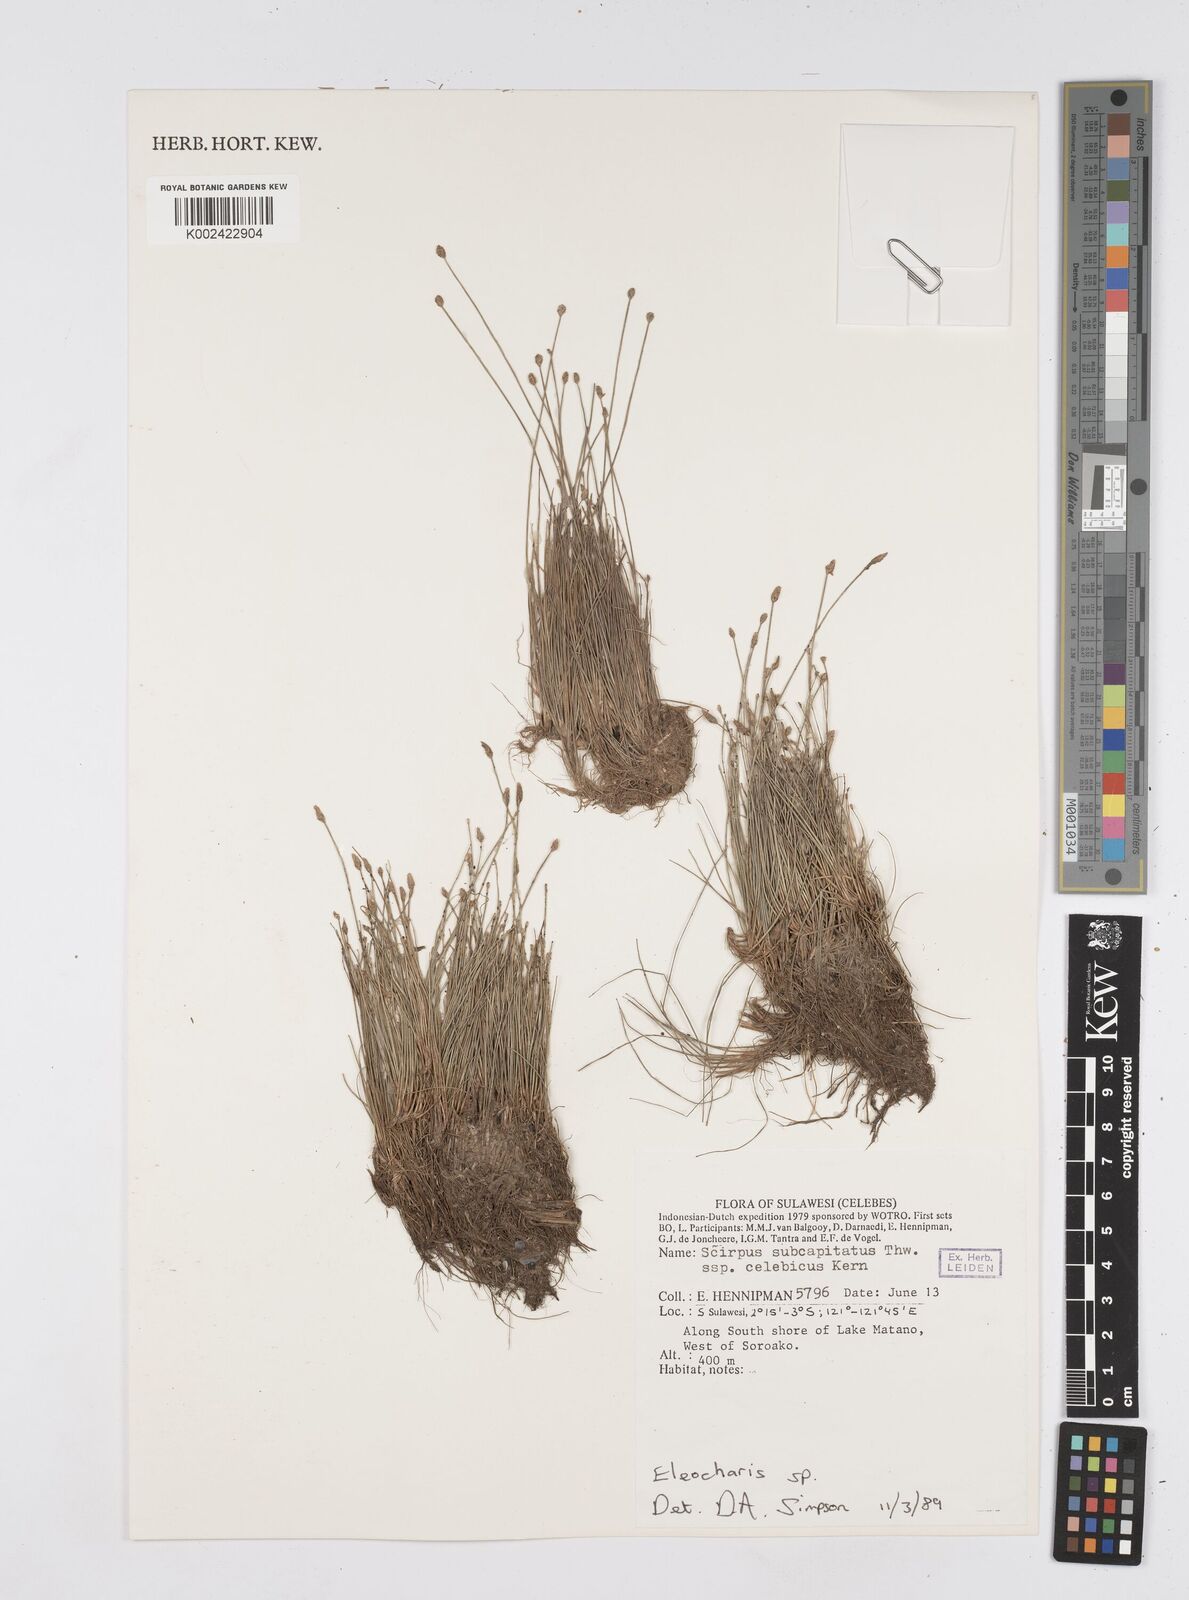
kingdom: Plantae
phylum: Tracheophyta
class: Liliopsida
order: Poales
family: Cyperaceae
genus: Eleocharis
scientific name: Eleocharis
